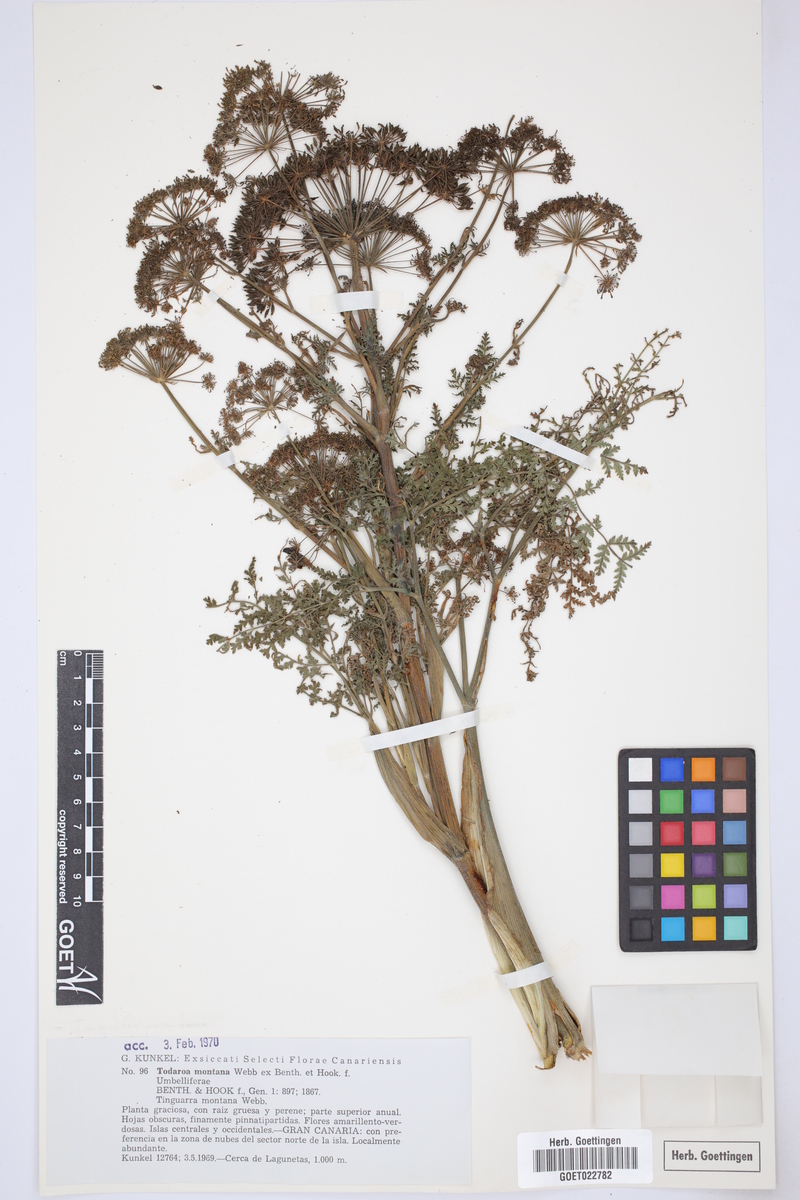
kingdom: Plantae
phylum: Tracheophyta
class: Magnoliopsida
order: Apiales
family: Apiaceae
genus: Athamanta
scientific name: Athamanta montana
